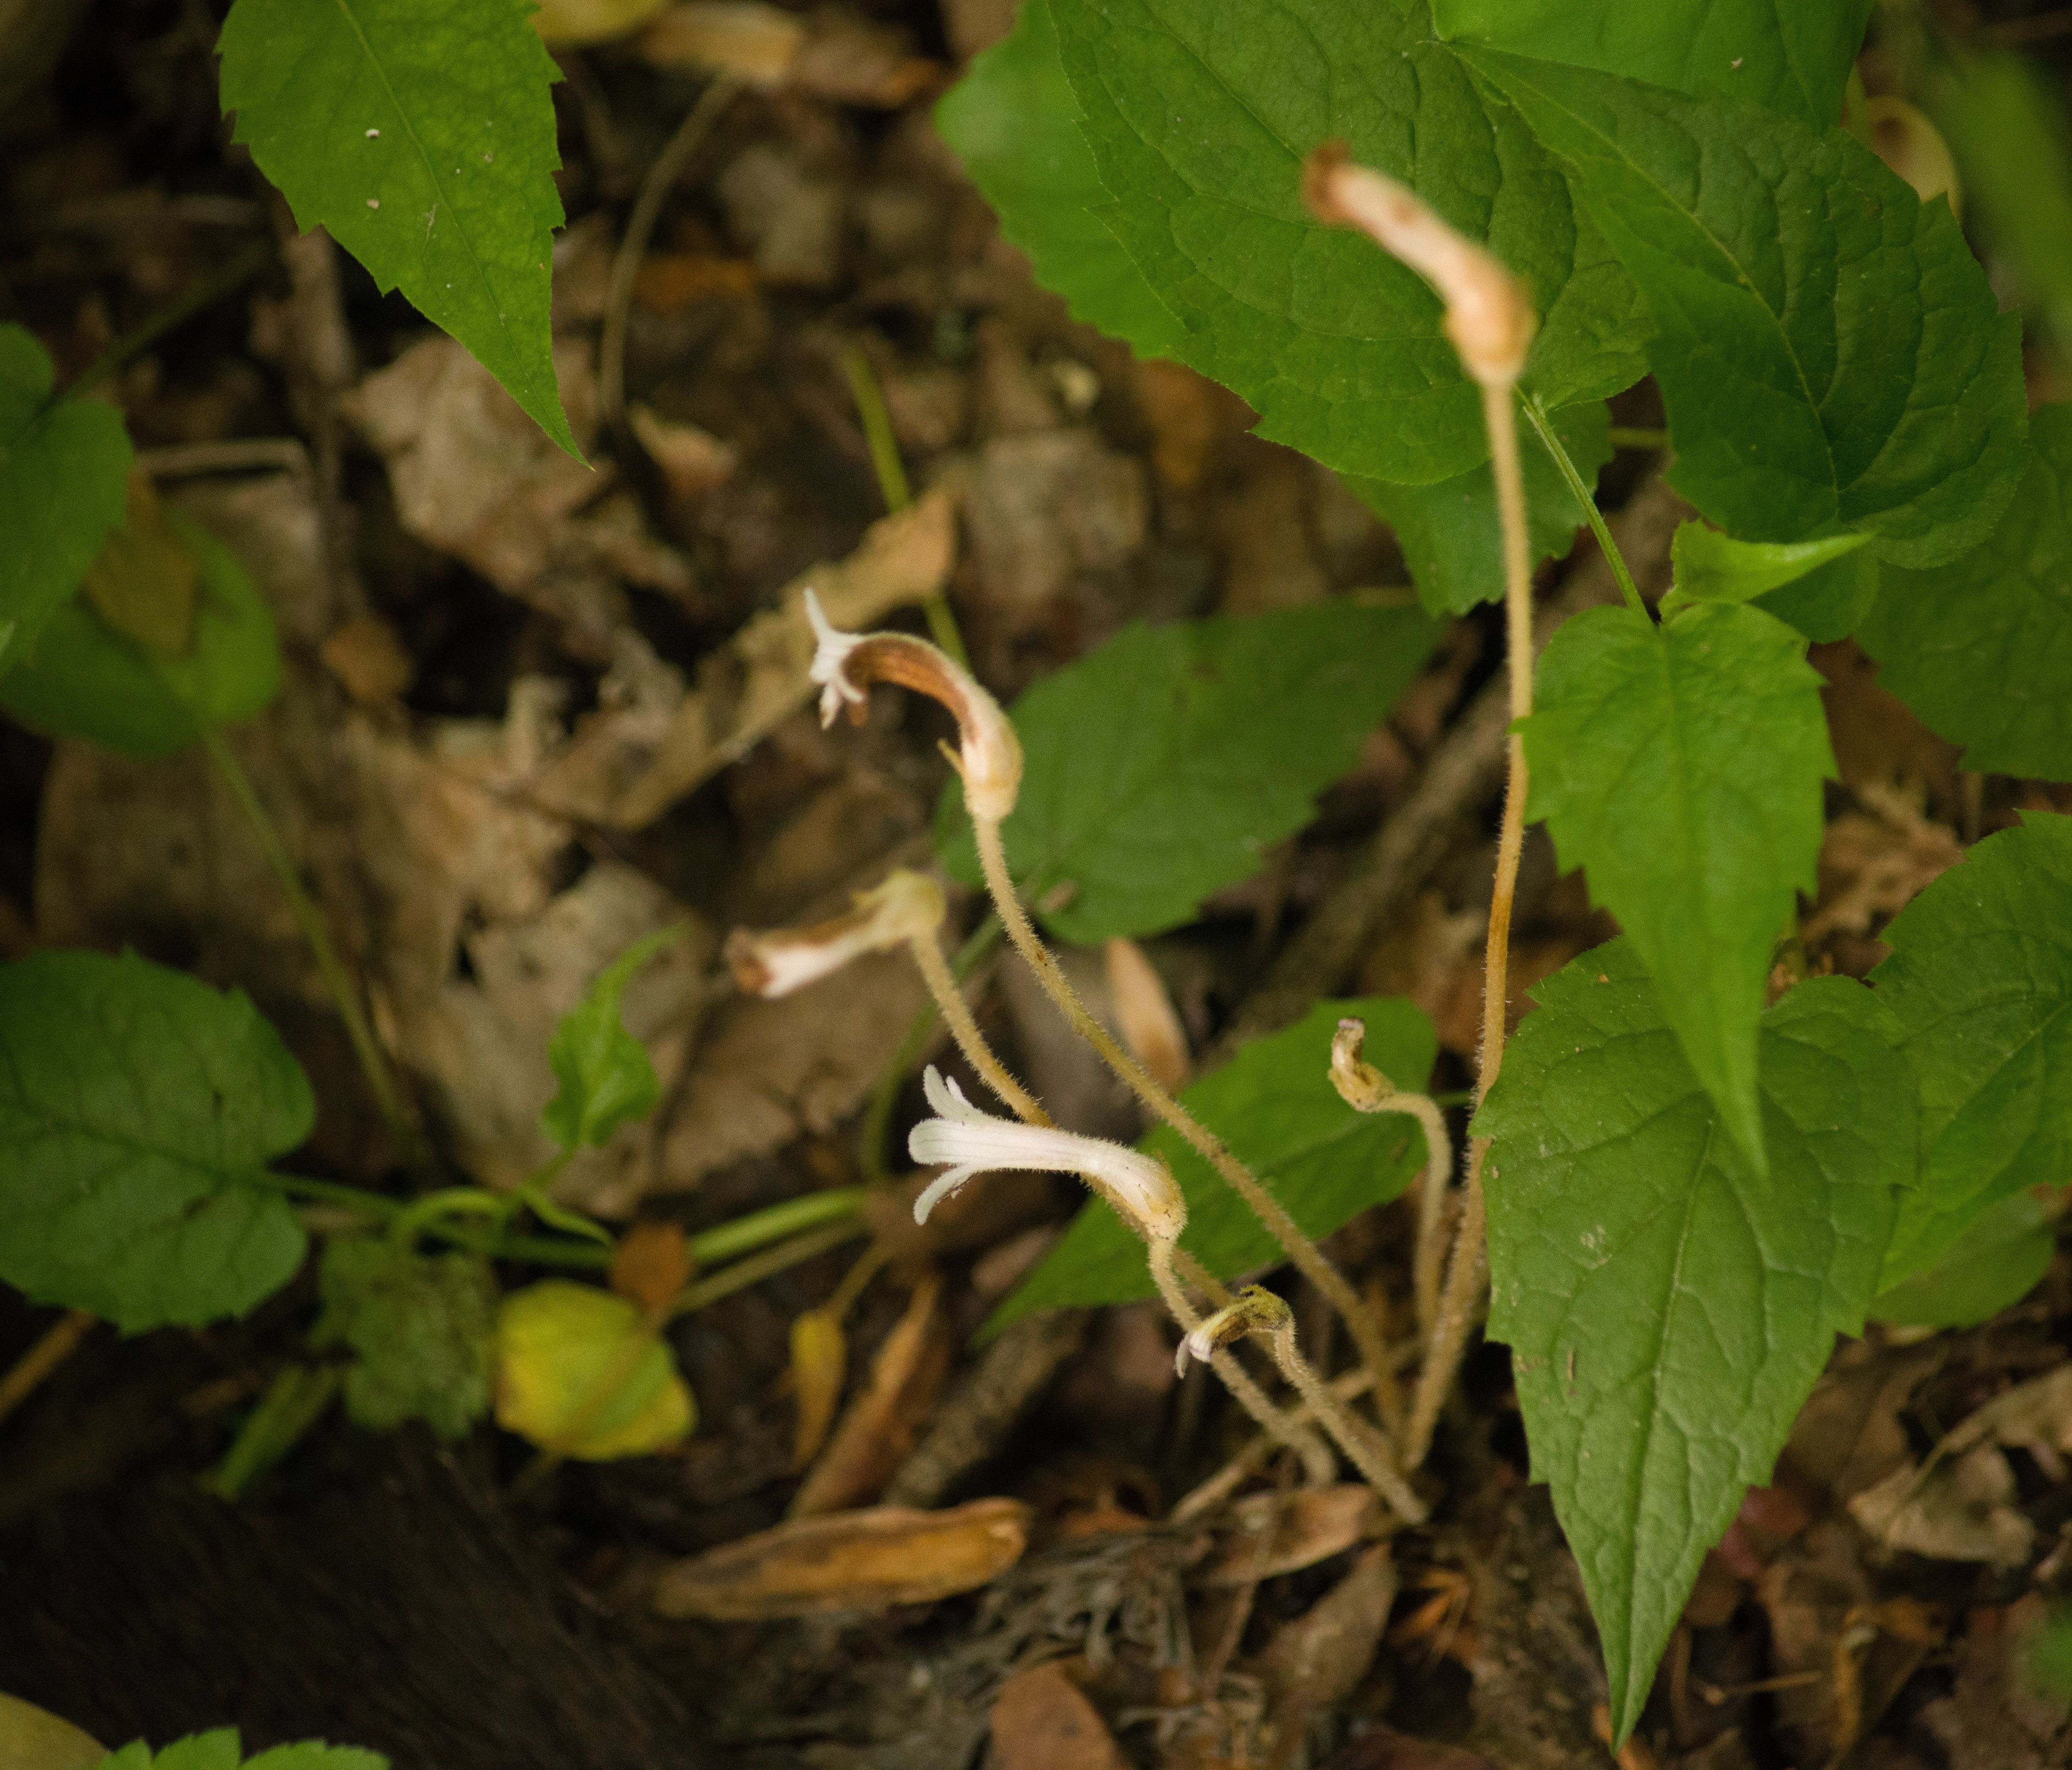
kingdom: Plantae
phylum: Tracheophyta
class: Magnoliopsida
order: Lamiales
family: Orobanchaceae
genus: Aphyllon
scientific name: Aphyllon uniflorum
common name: One-flowered broomrape
